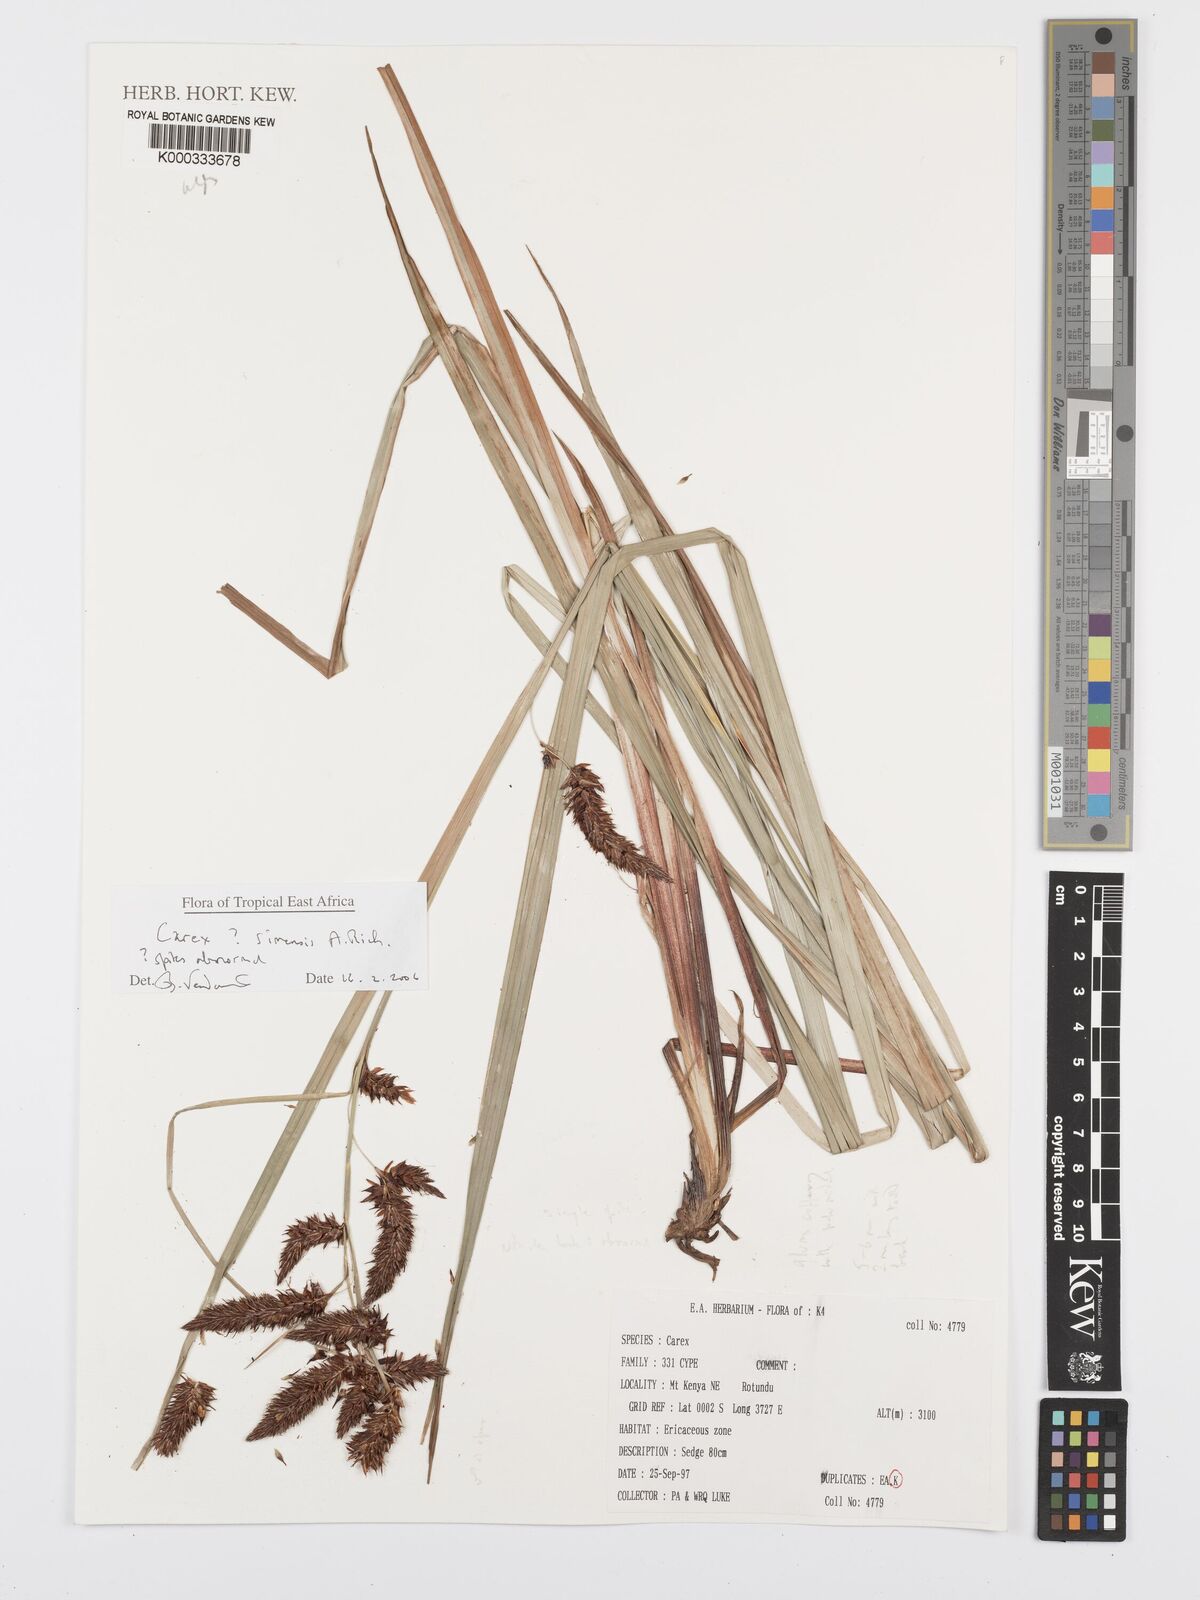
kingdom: Plantae
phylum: Tracheophyta
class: Liliopsida
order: Poales
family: Cyperaceae
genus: Carex
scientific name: Carex simensis
